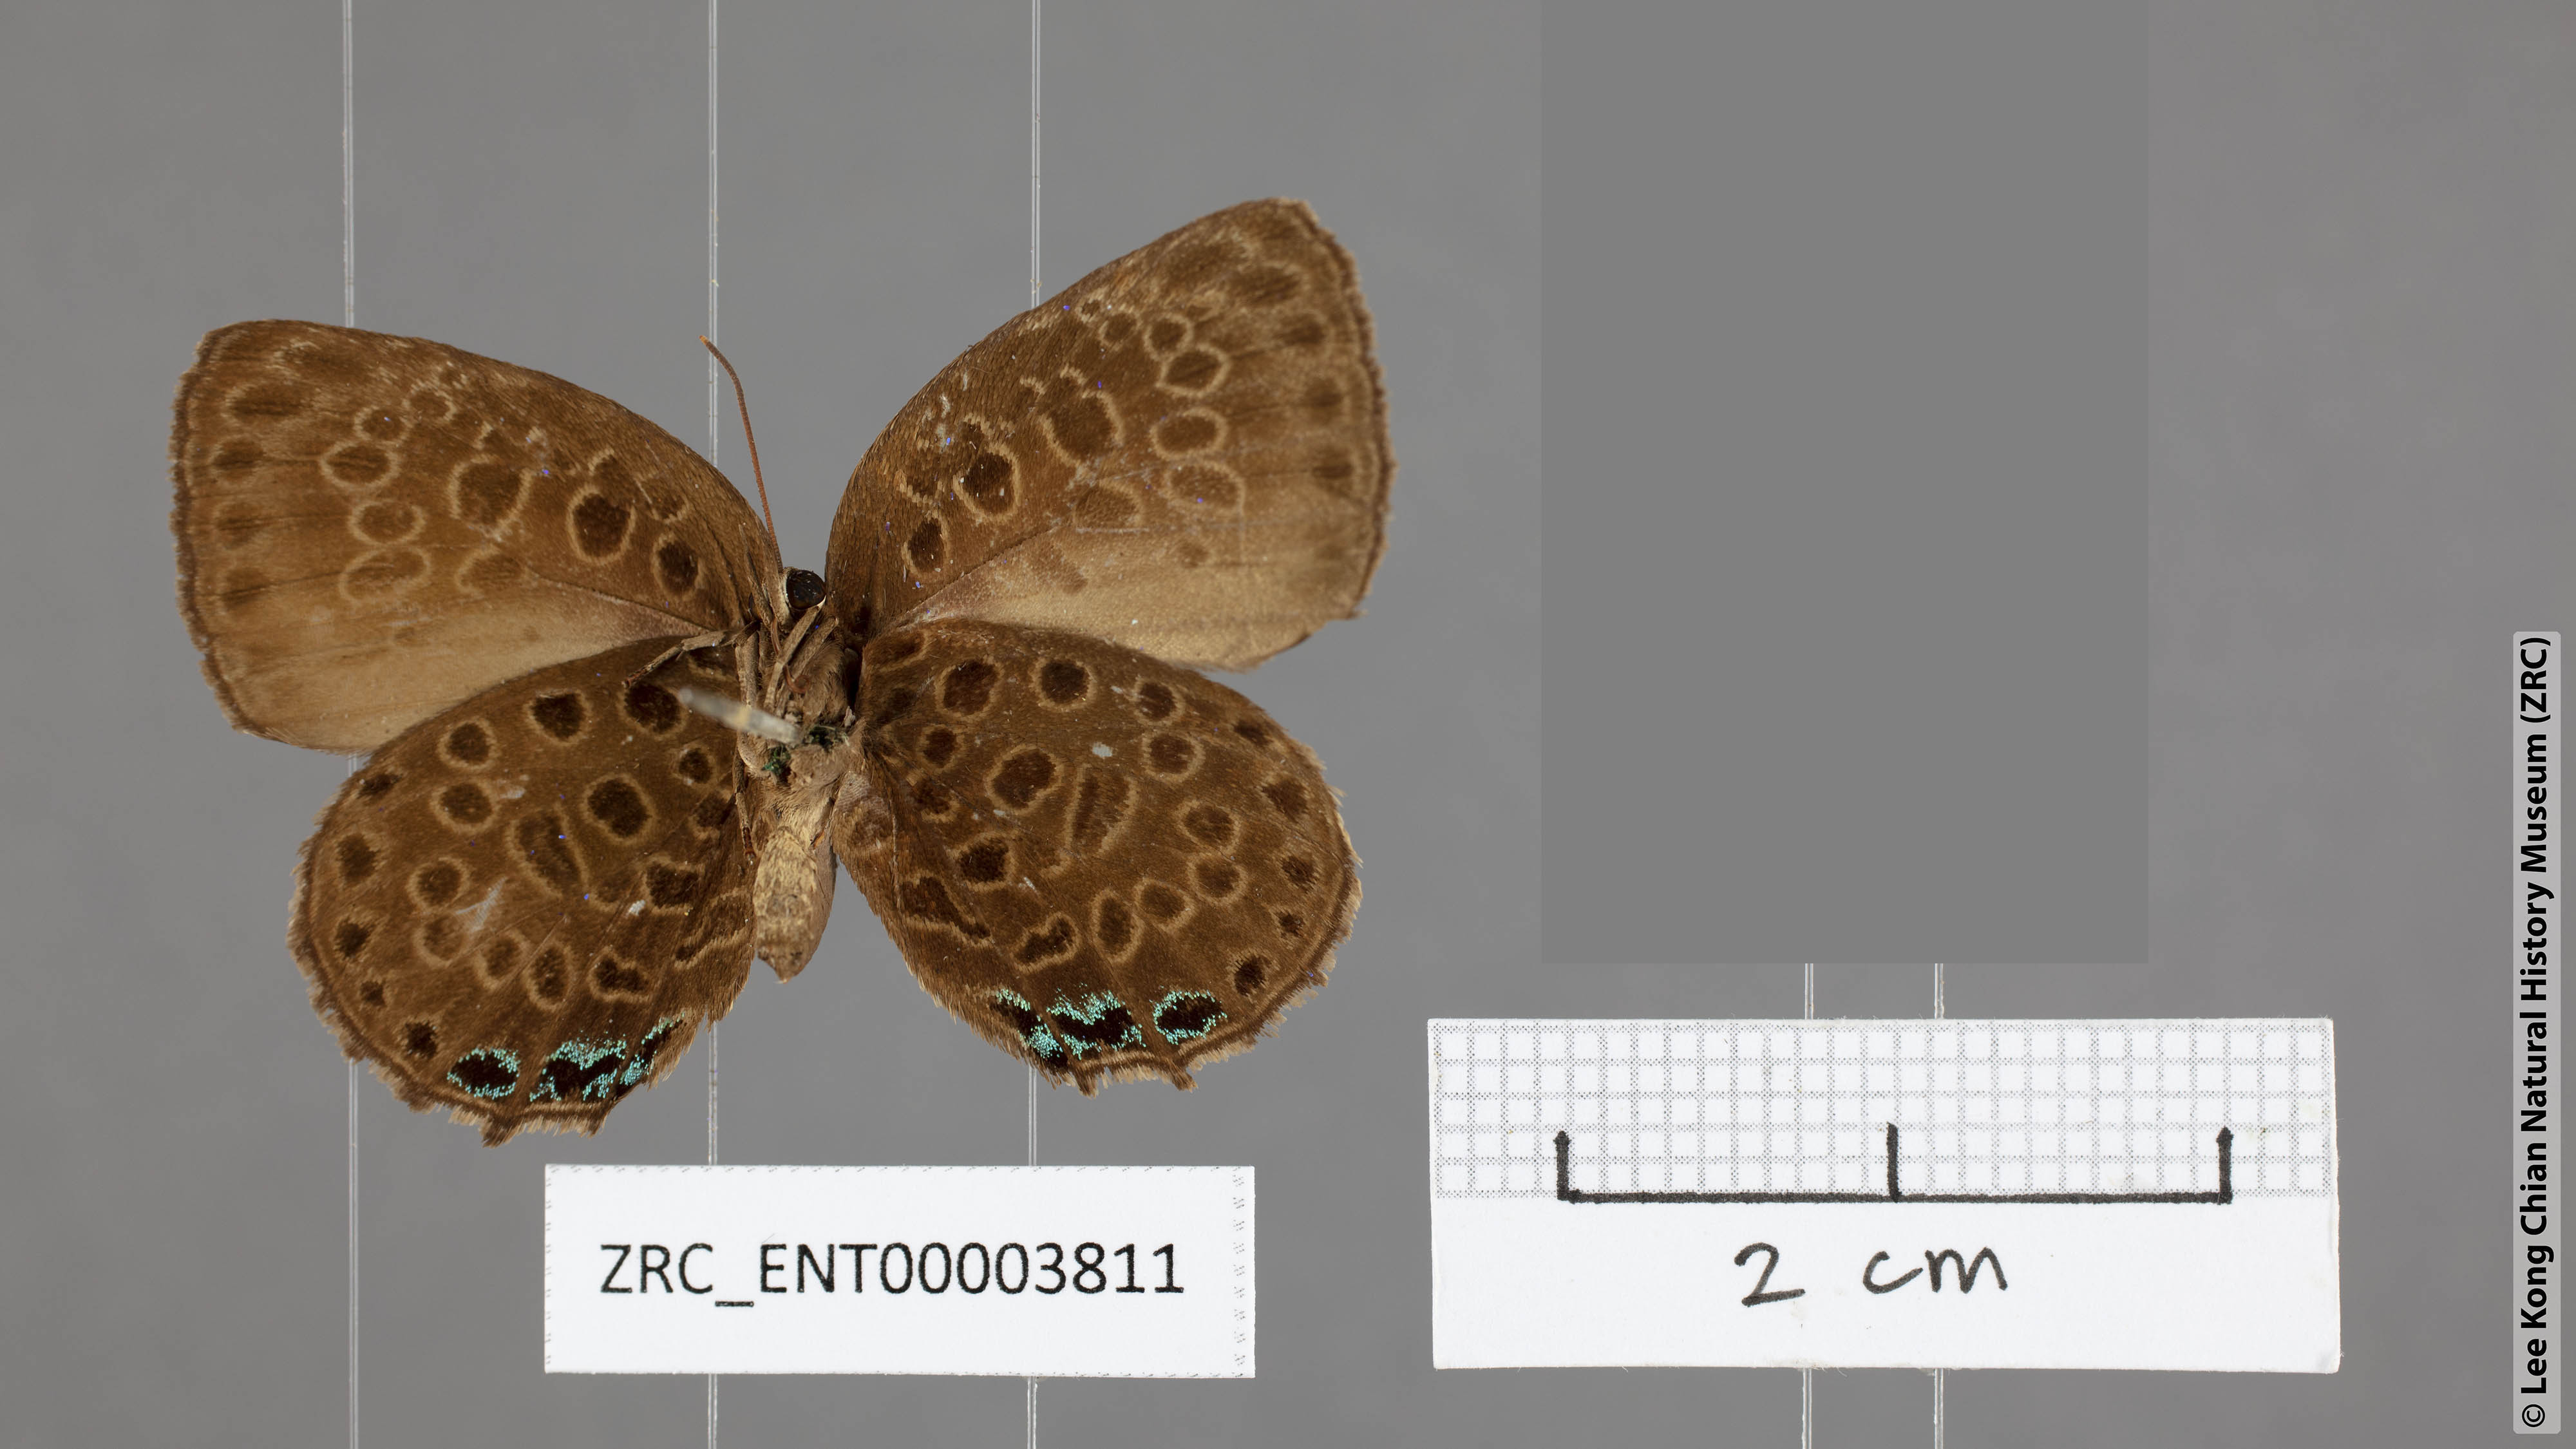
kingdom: Animalia
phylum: Arthropoda
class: Insecta
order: Lepidoptera
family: Lycaenidae
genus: Arhopala
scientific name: Arhopala agesias
